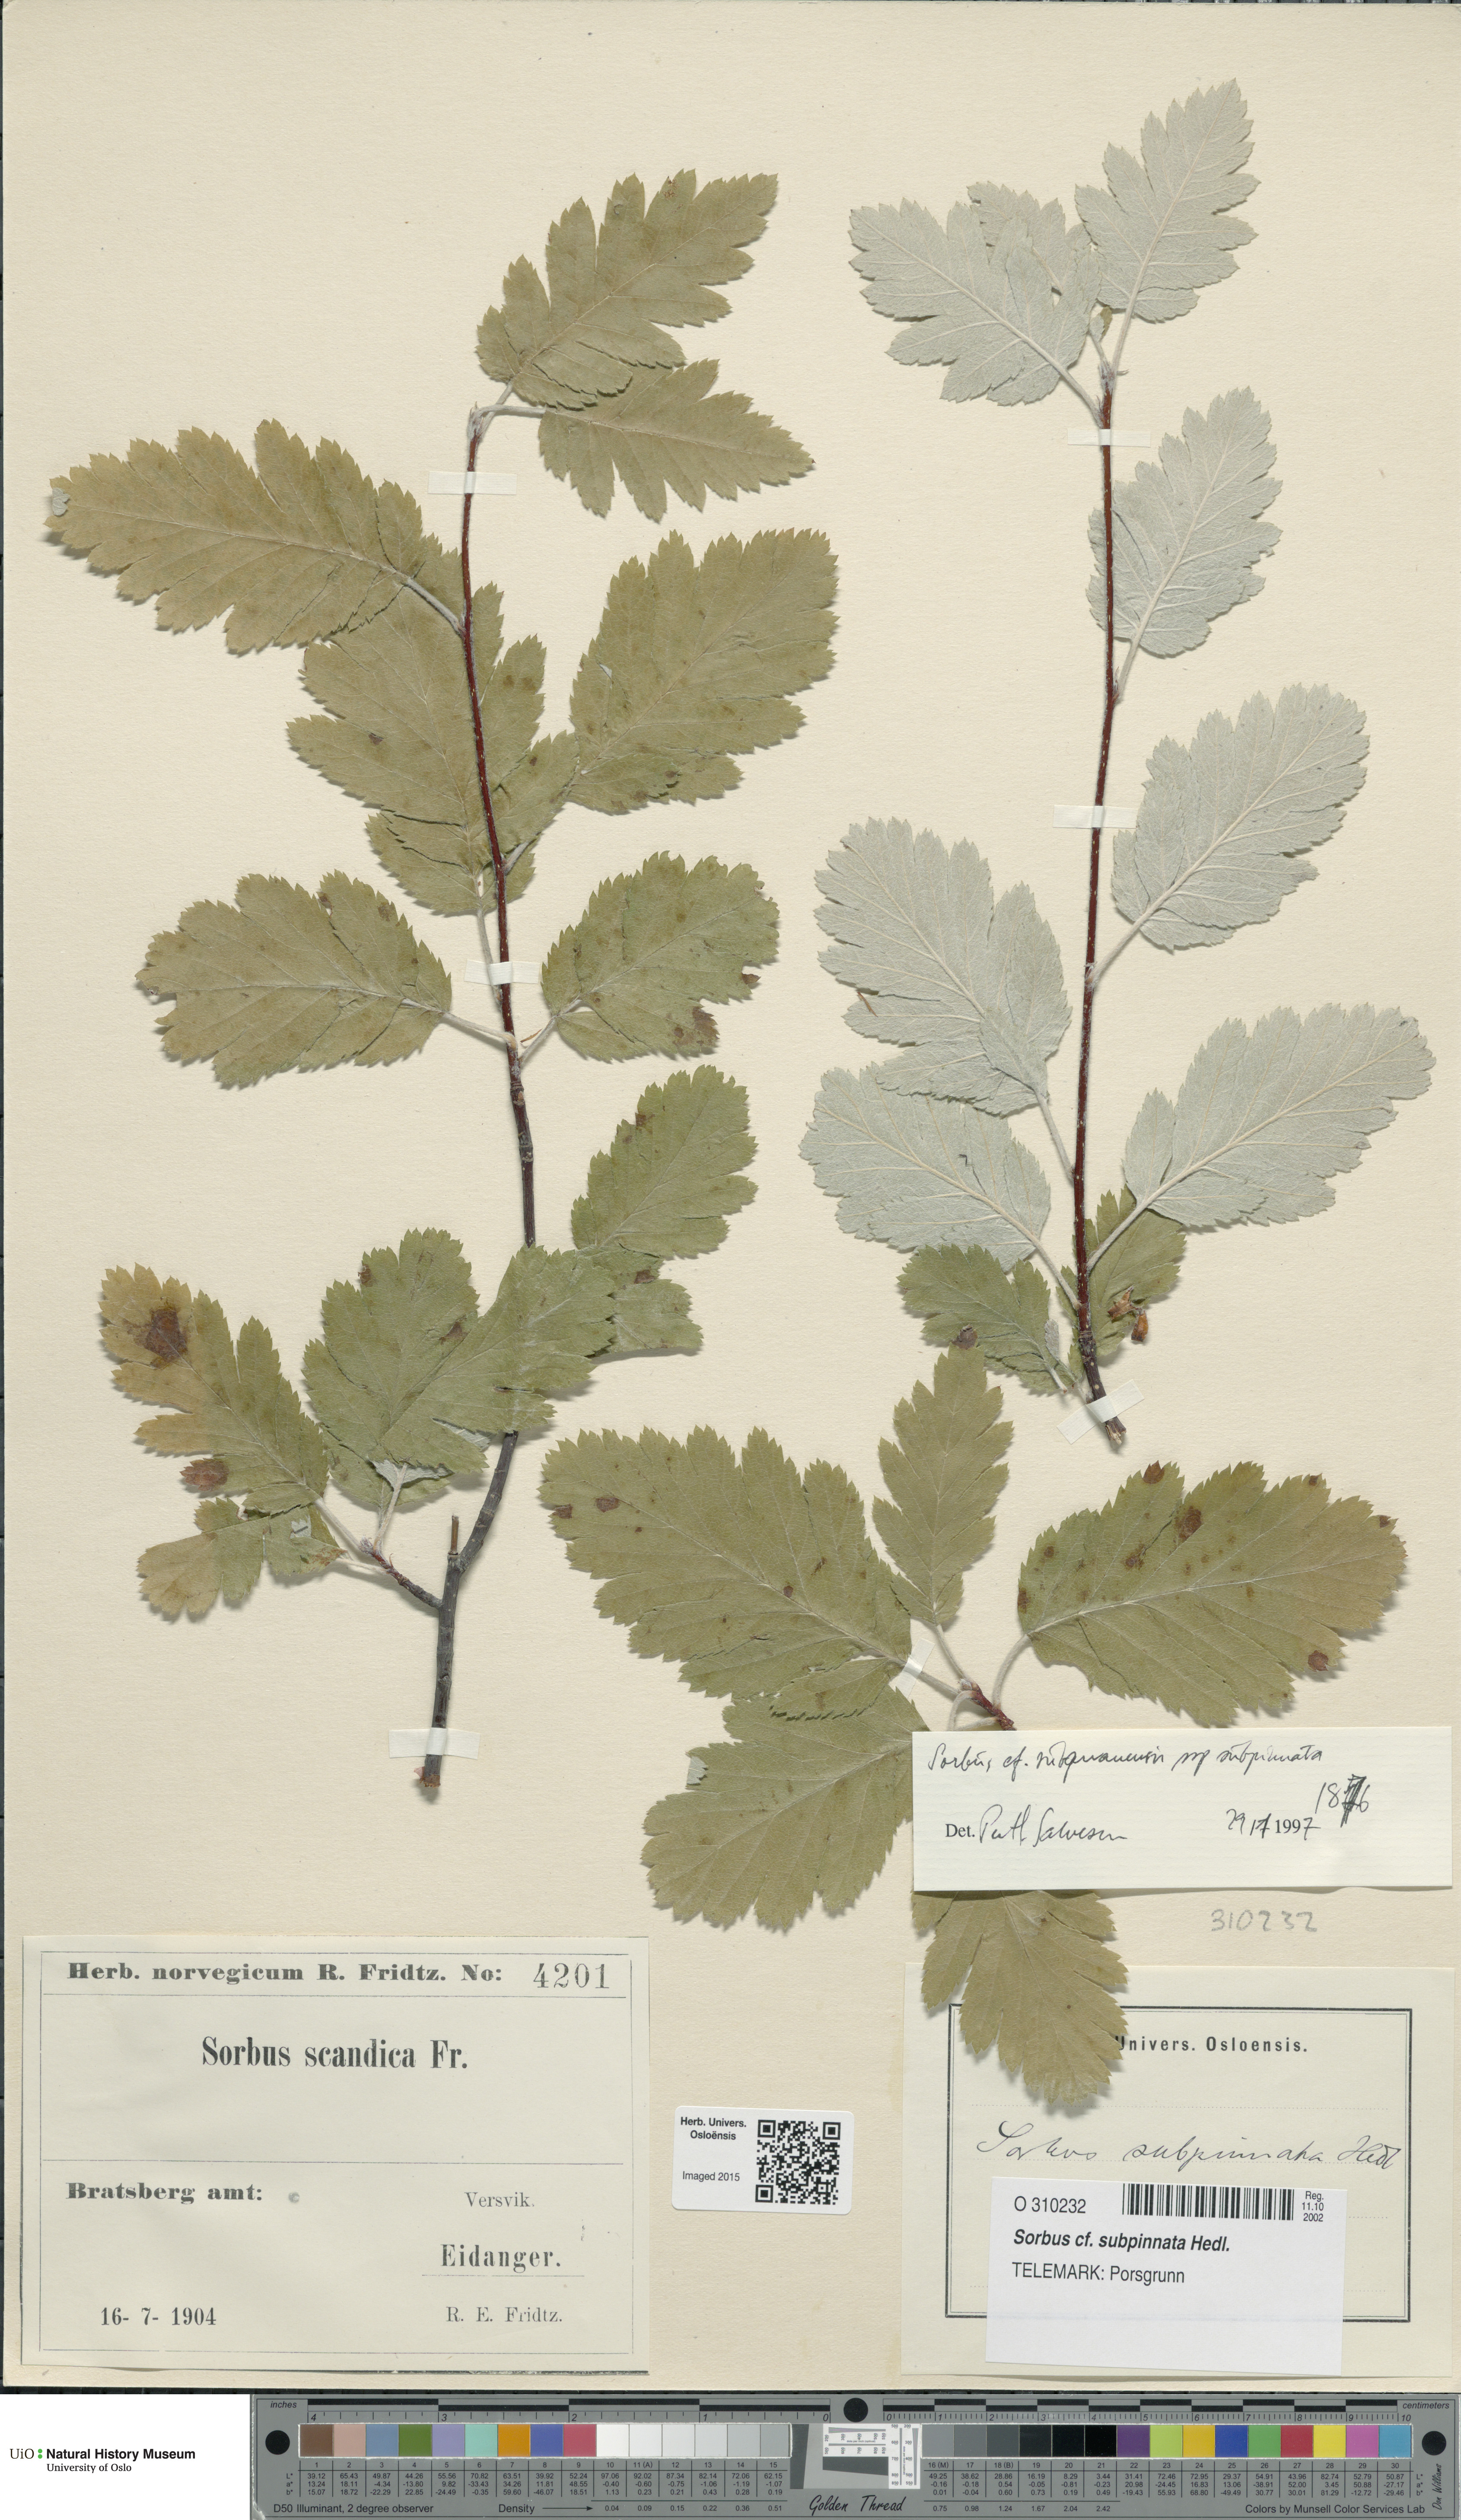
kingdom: Plantae
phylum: Tracheophyta
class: Magnoliopsida
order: Rosales
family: Rosaceae
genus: Hedlundia
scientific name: Hedlundia subpinnata
